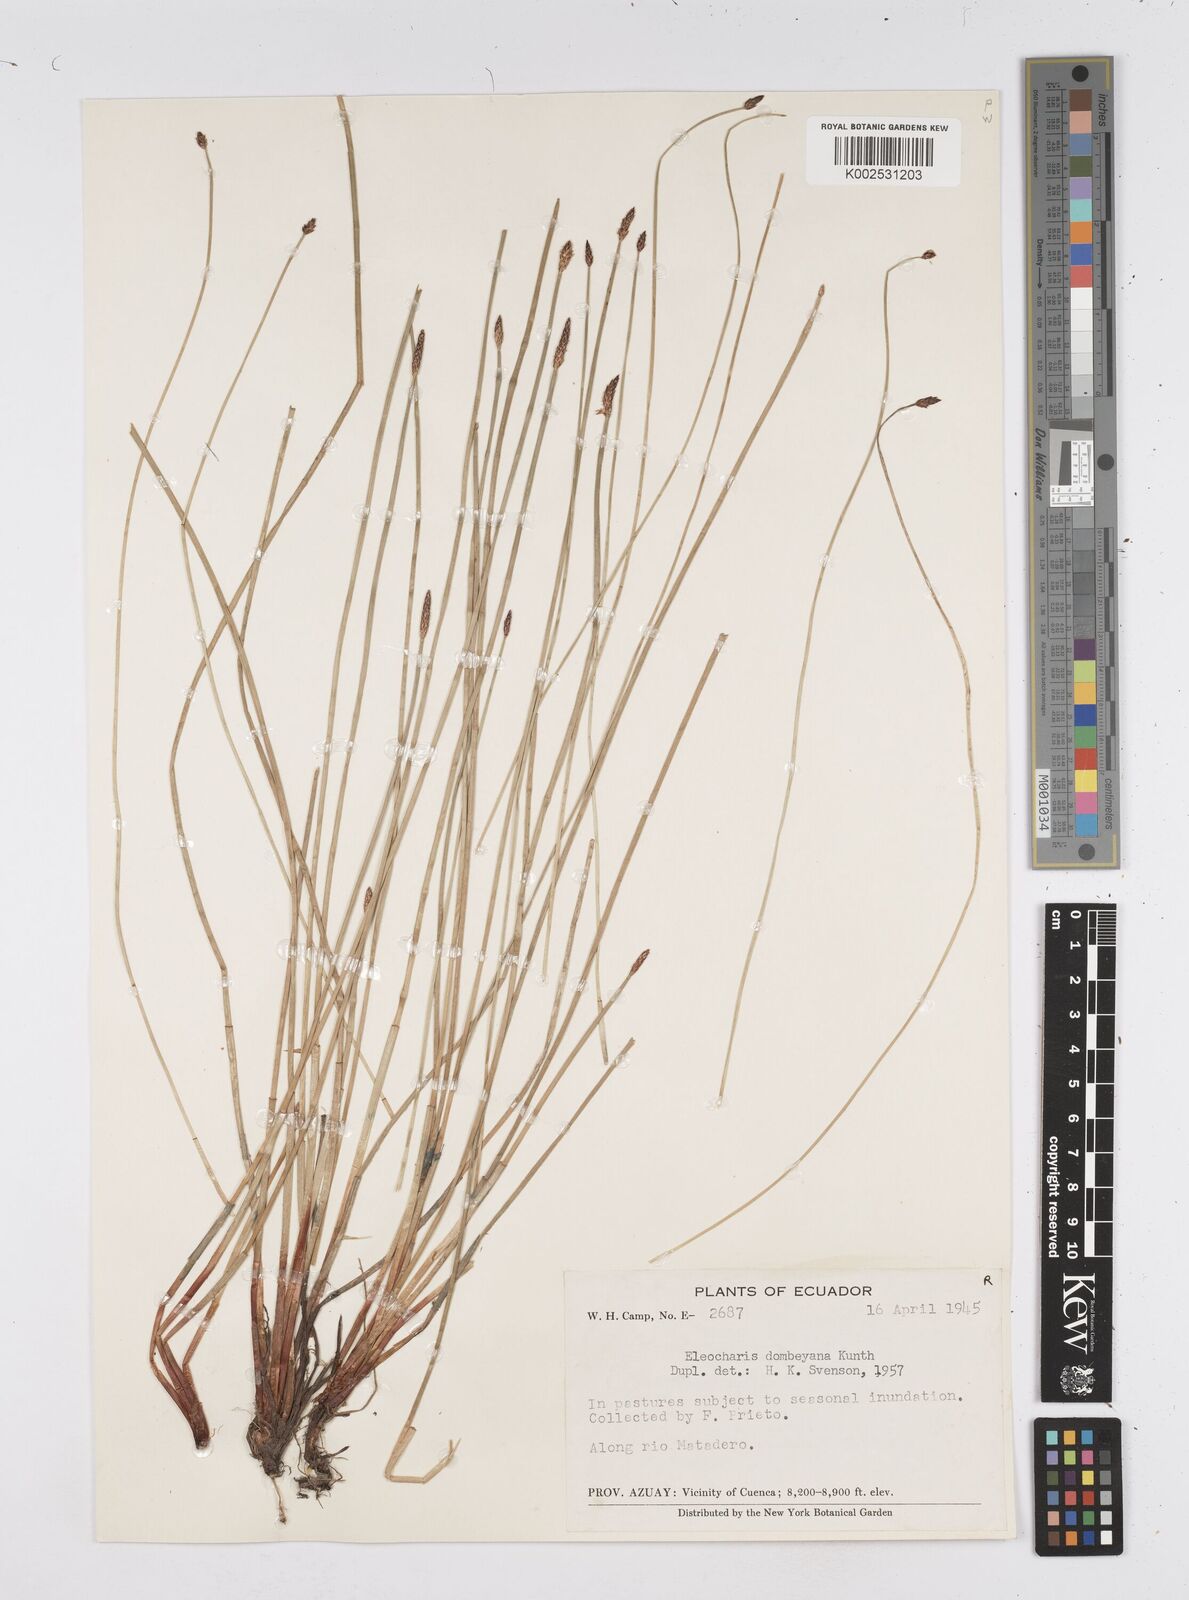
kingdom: Plantae
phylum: Tracheophyta
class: Liliopsida
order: Poales
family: Cyperaceae
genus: Eleocharis
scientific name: Eleocharis dombeyana
